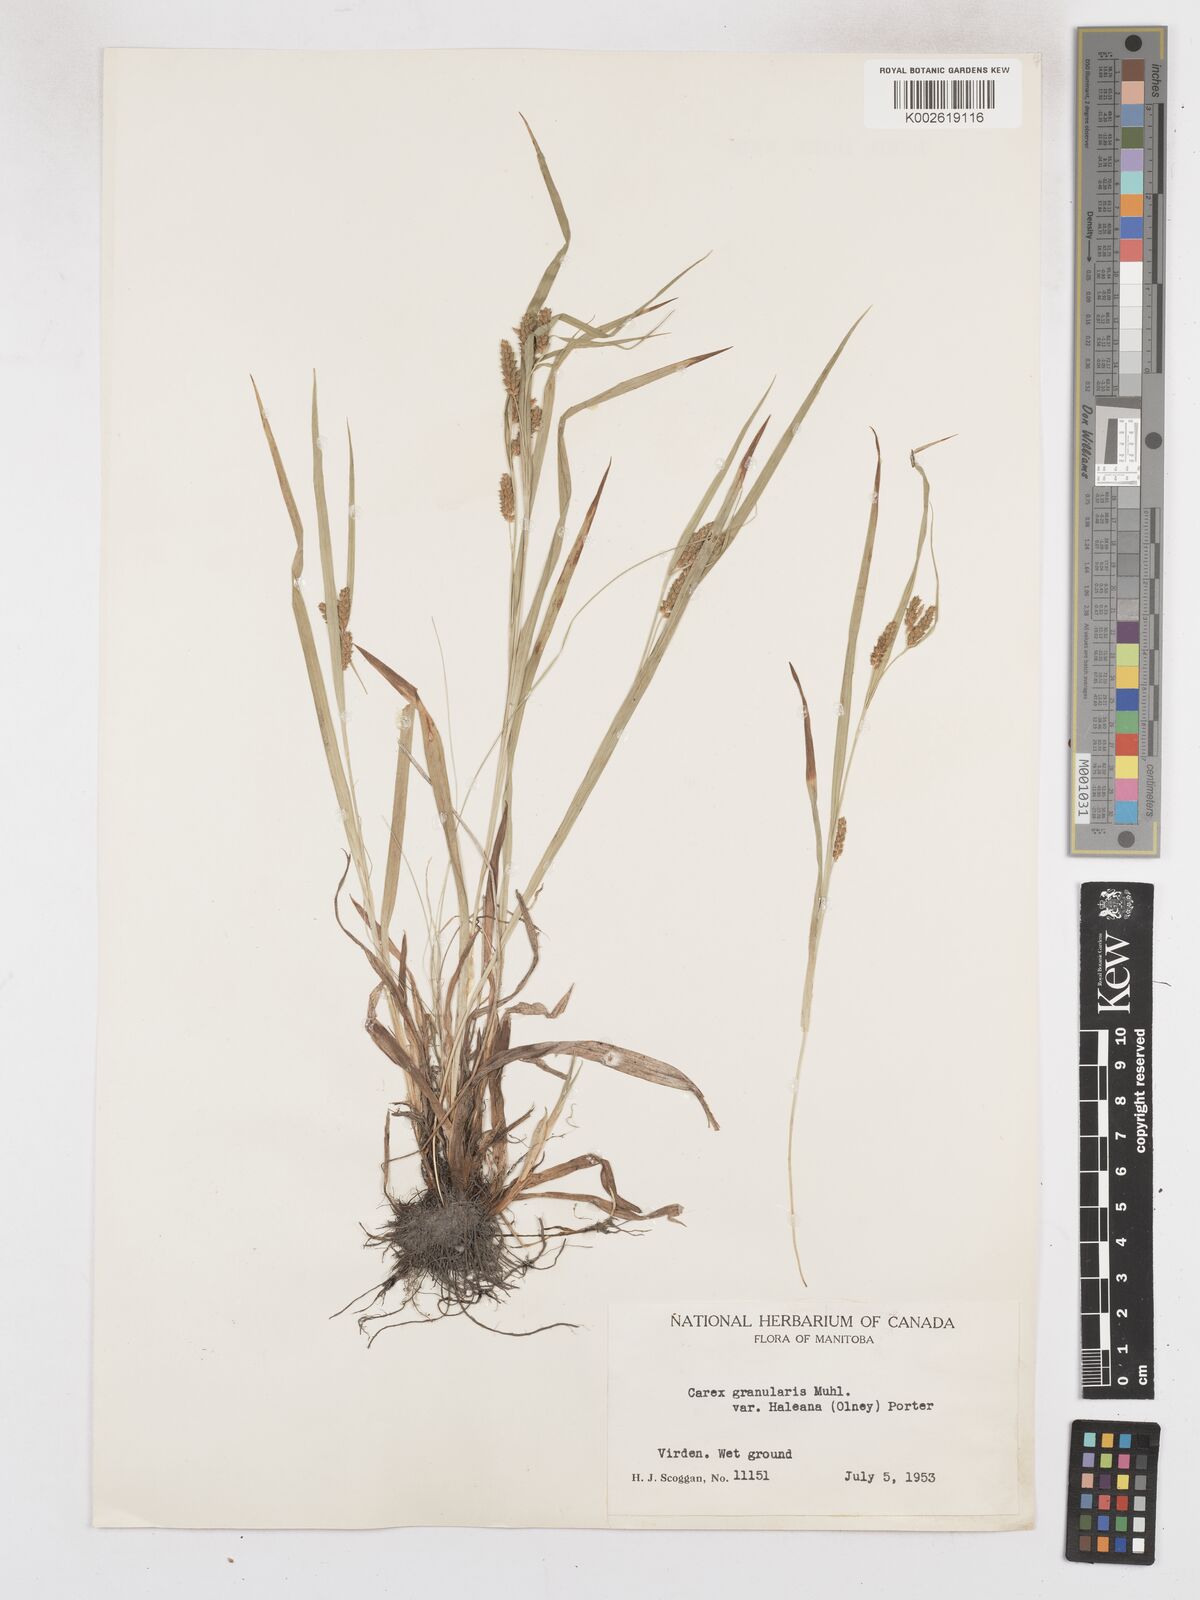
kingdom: Plantae
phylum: Tracheophyta
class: Liliopsida
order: Poales
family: Cyperaceae
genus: Carex
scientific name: Carex granularis
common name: Granular sedge
